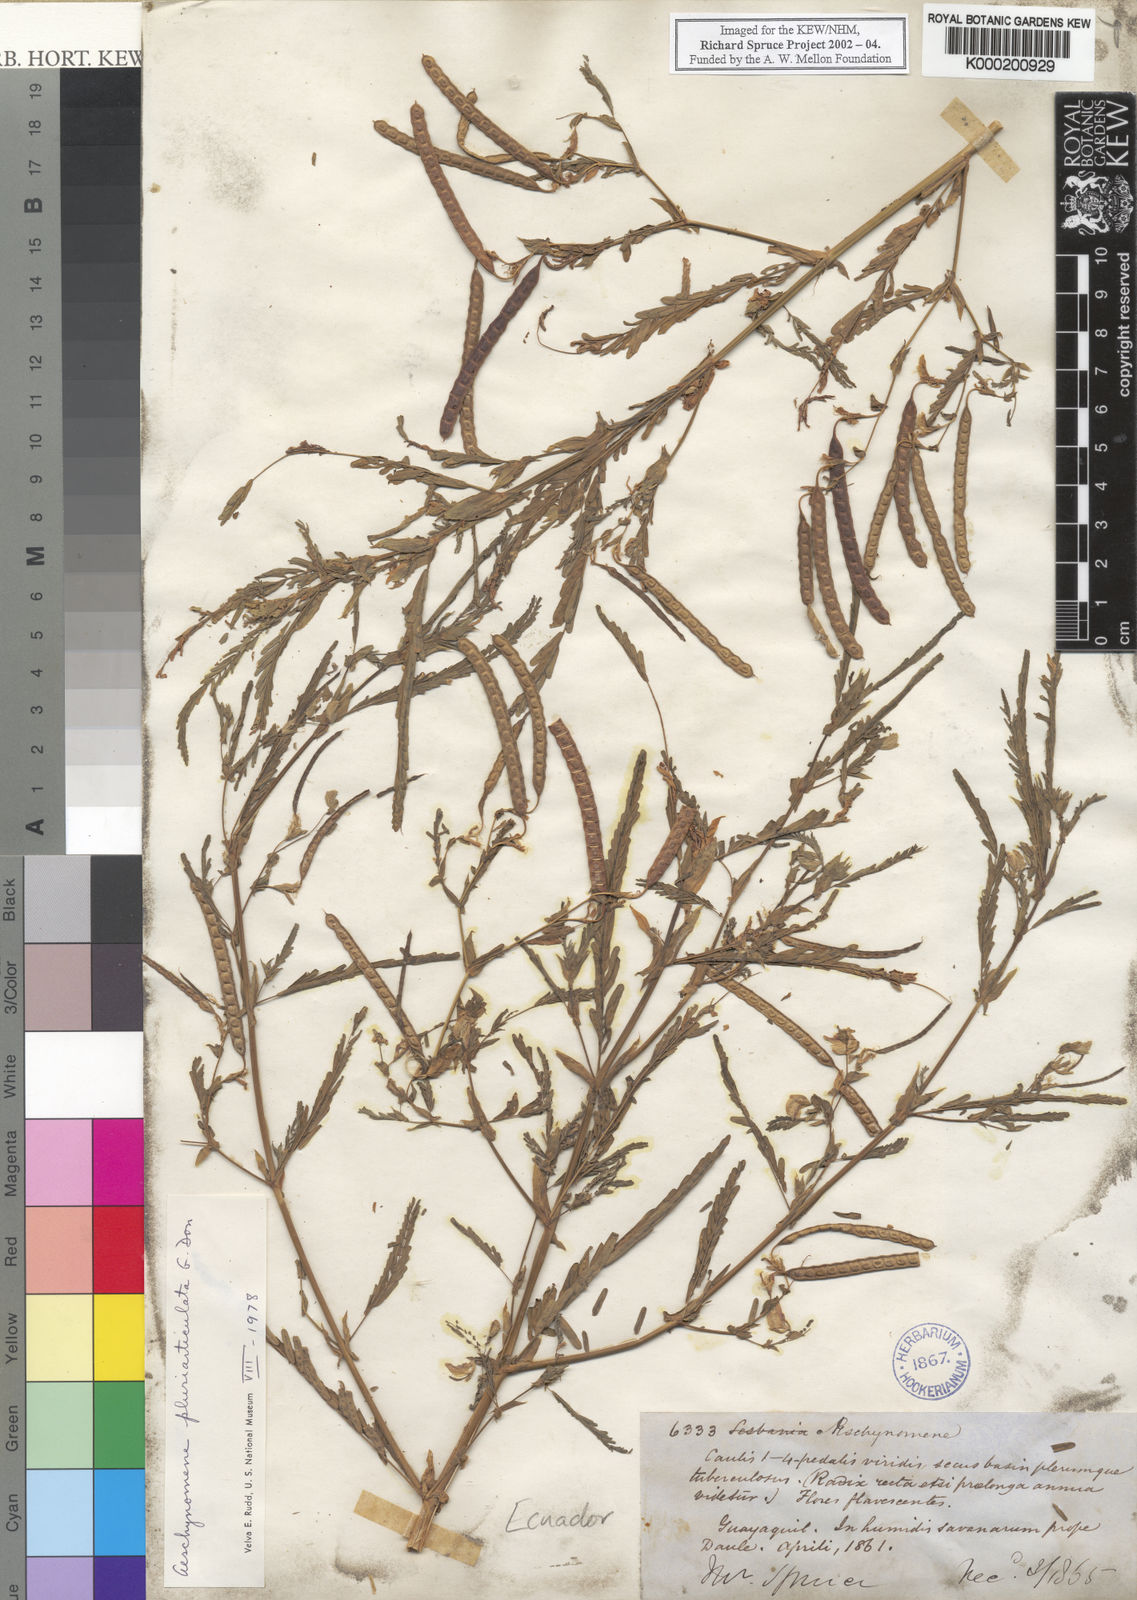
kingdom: Plantae
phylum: Tracheophyta
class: Magnoliopsida
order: Fabales
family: Fabaceae
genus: Aeschynomene
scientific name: Aeschynomene pluriarticulata
